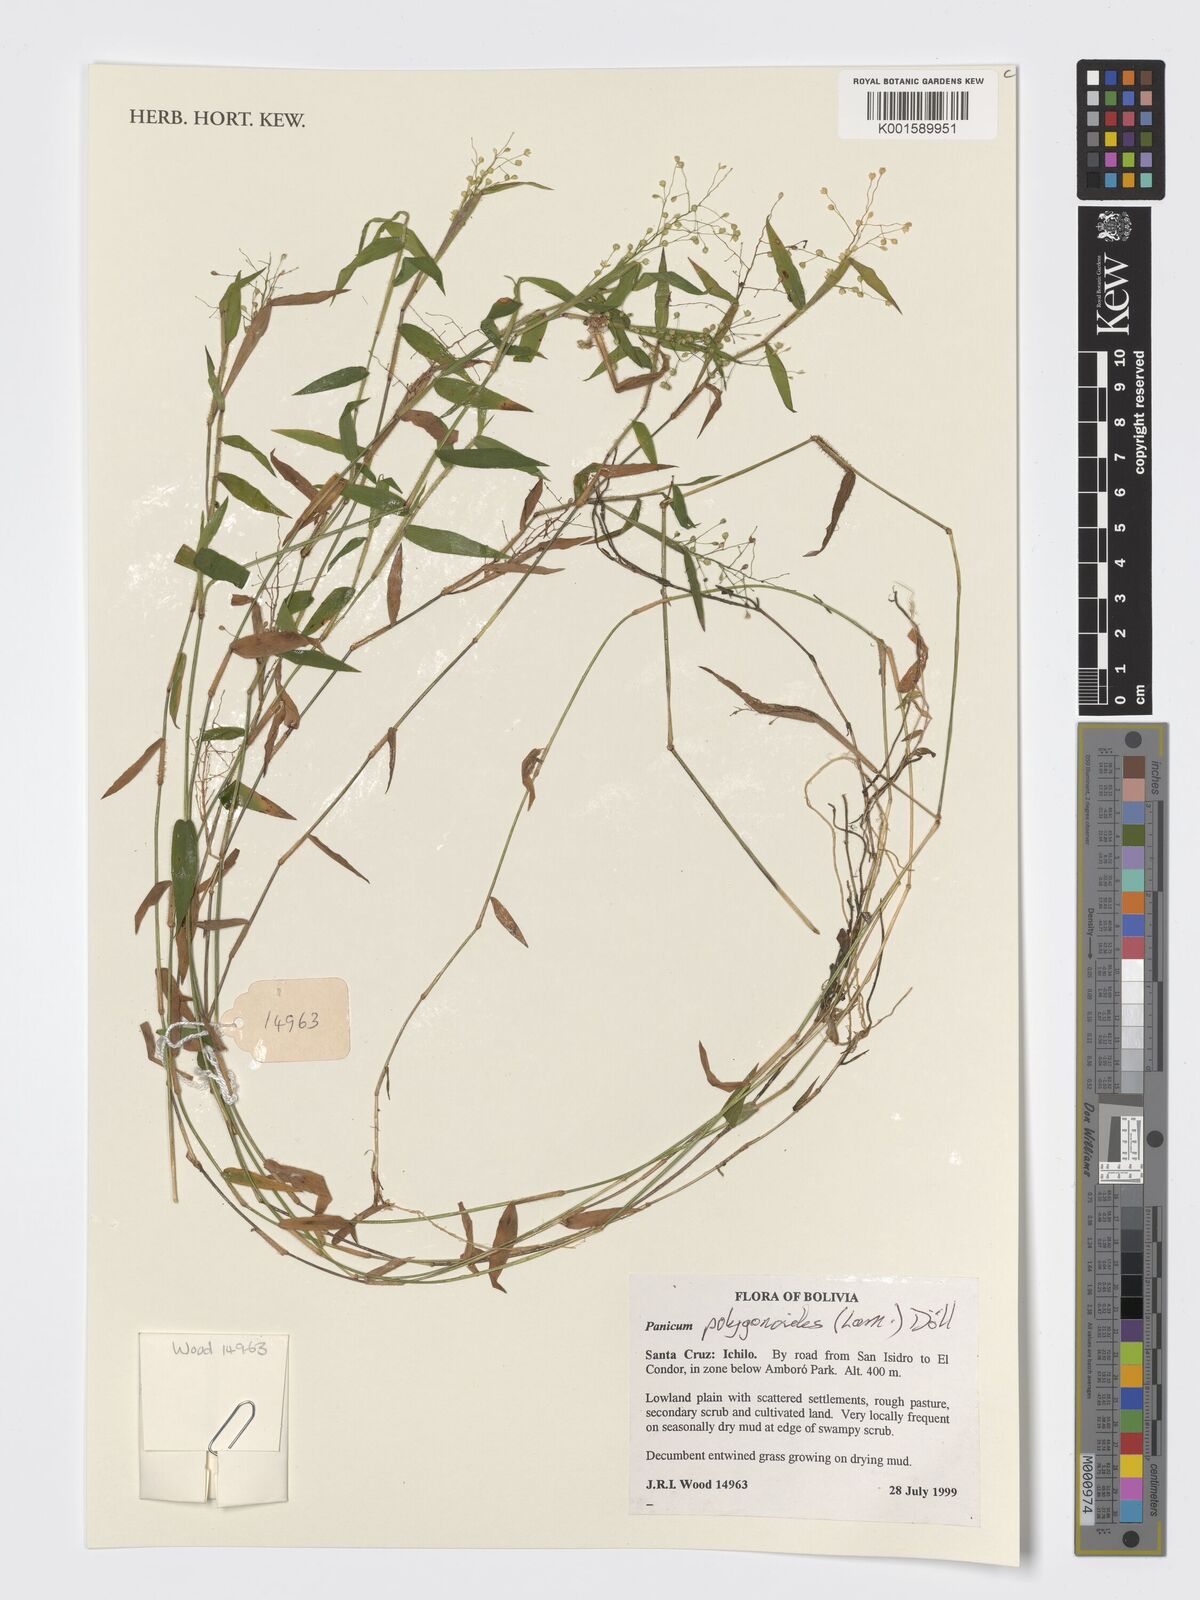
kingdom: Plantae
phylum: Tracheophyta
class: Liliopsida
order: Poales
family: Poaceae
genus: Isachne
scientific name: Isachne polygonoides
